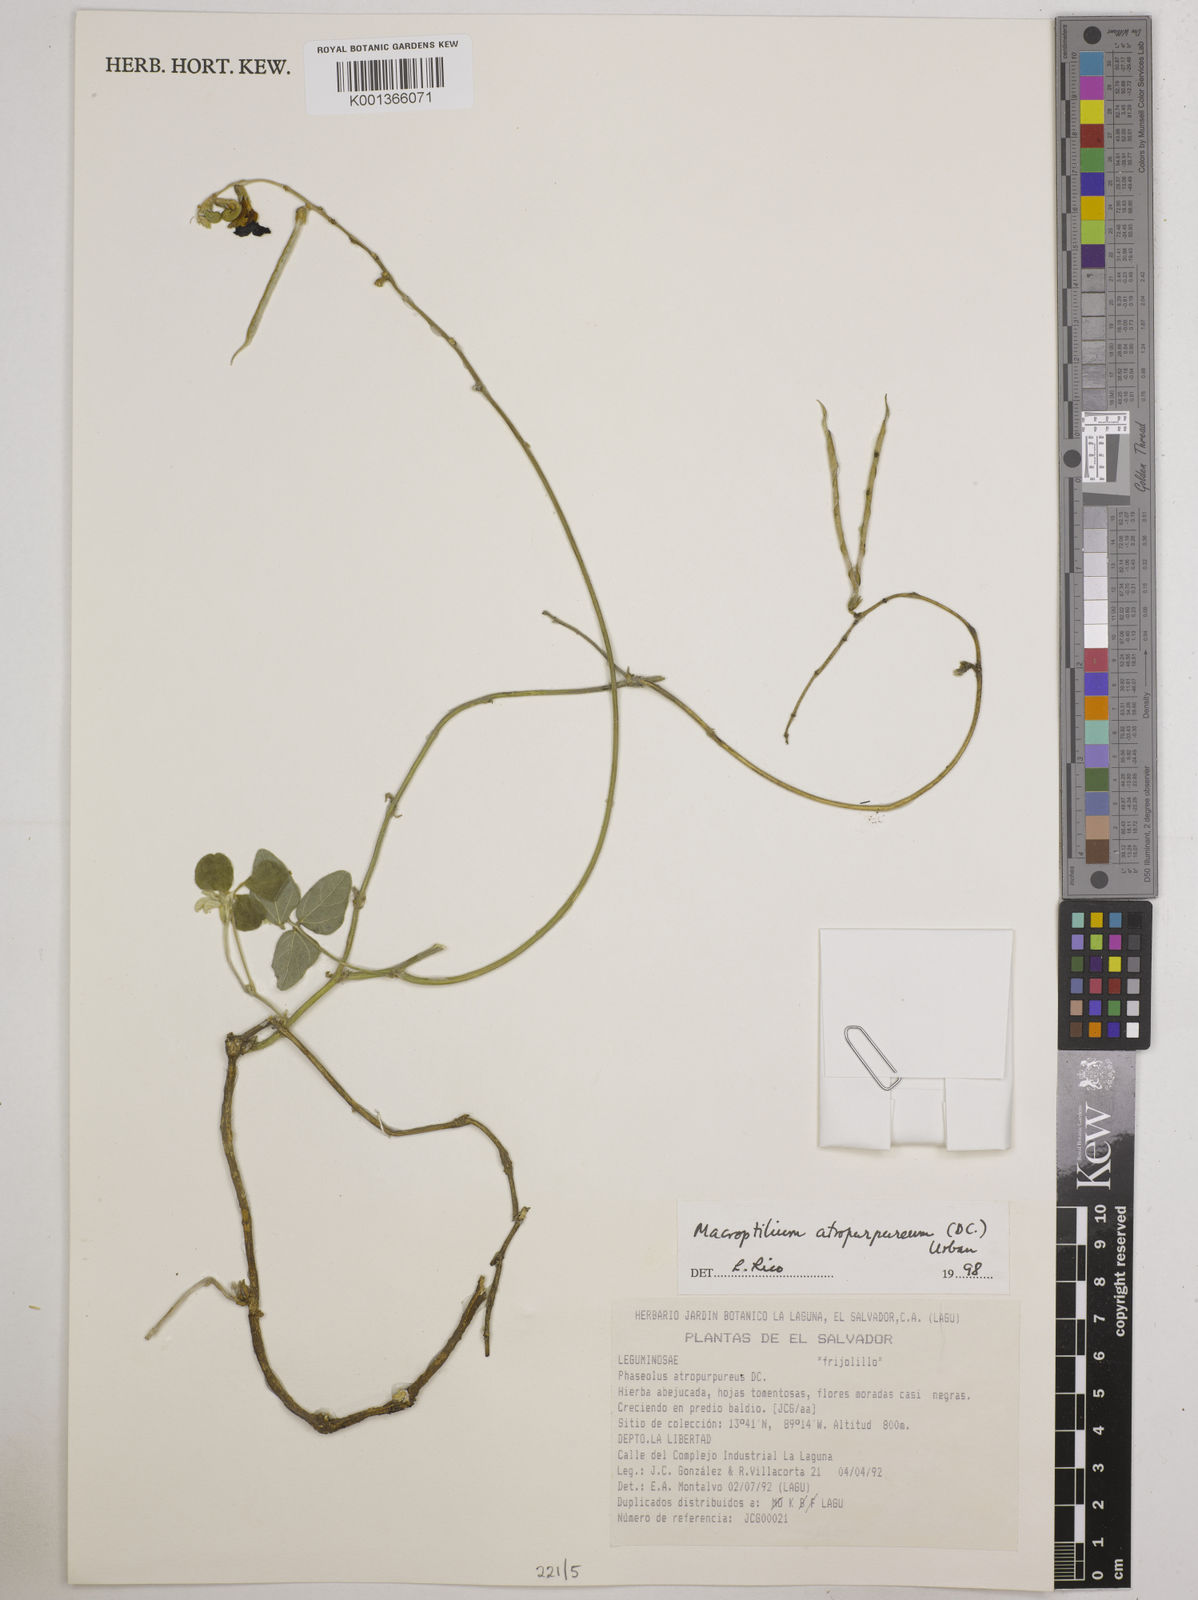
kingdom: Plantae
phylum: Tracheophyta
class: Magnoliopsida
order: Fabales
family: Fabaceae
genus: Macroptilium
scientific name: Macroptilium atropurpureum
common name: Purple bushbean
